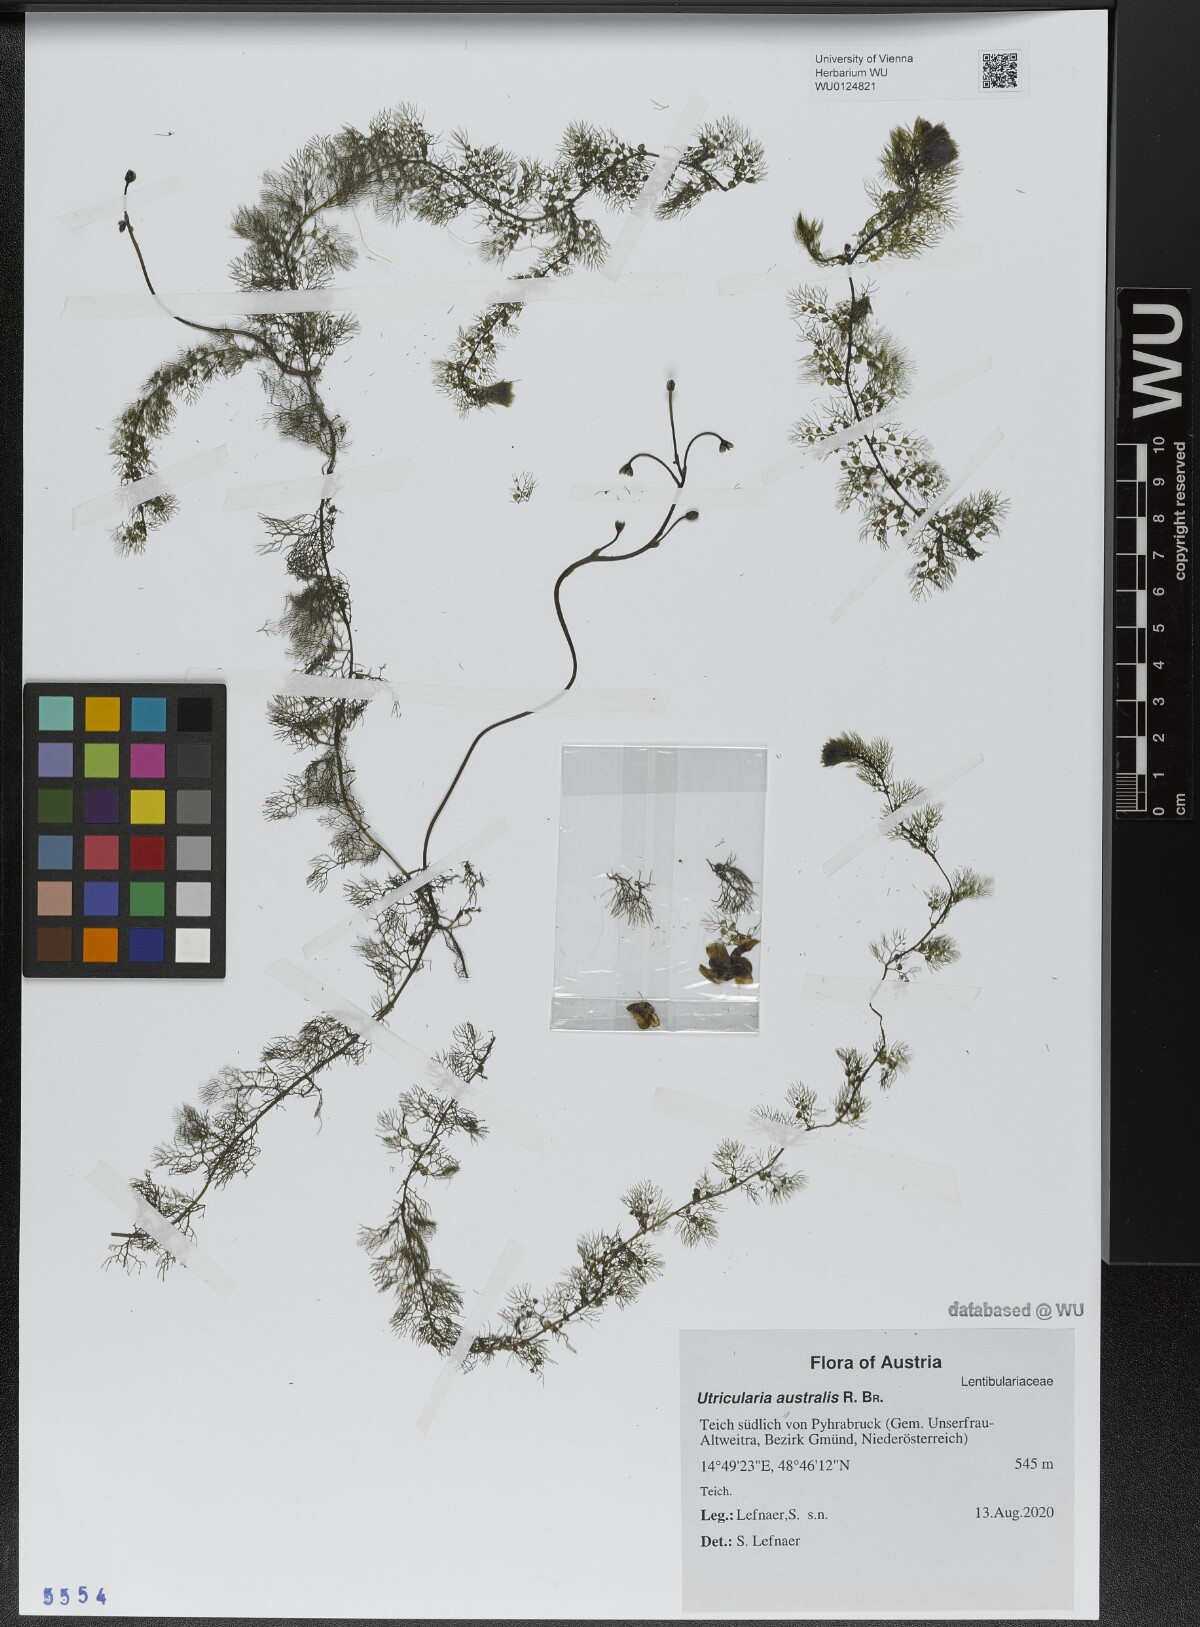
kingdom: Plantae
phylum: Tracheophyta
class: Magnoliopsida
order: Lamiales
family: Lentibulariaceae
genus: Utricularia
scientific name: Utricularia australis
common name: Bladderwort
